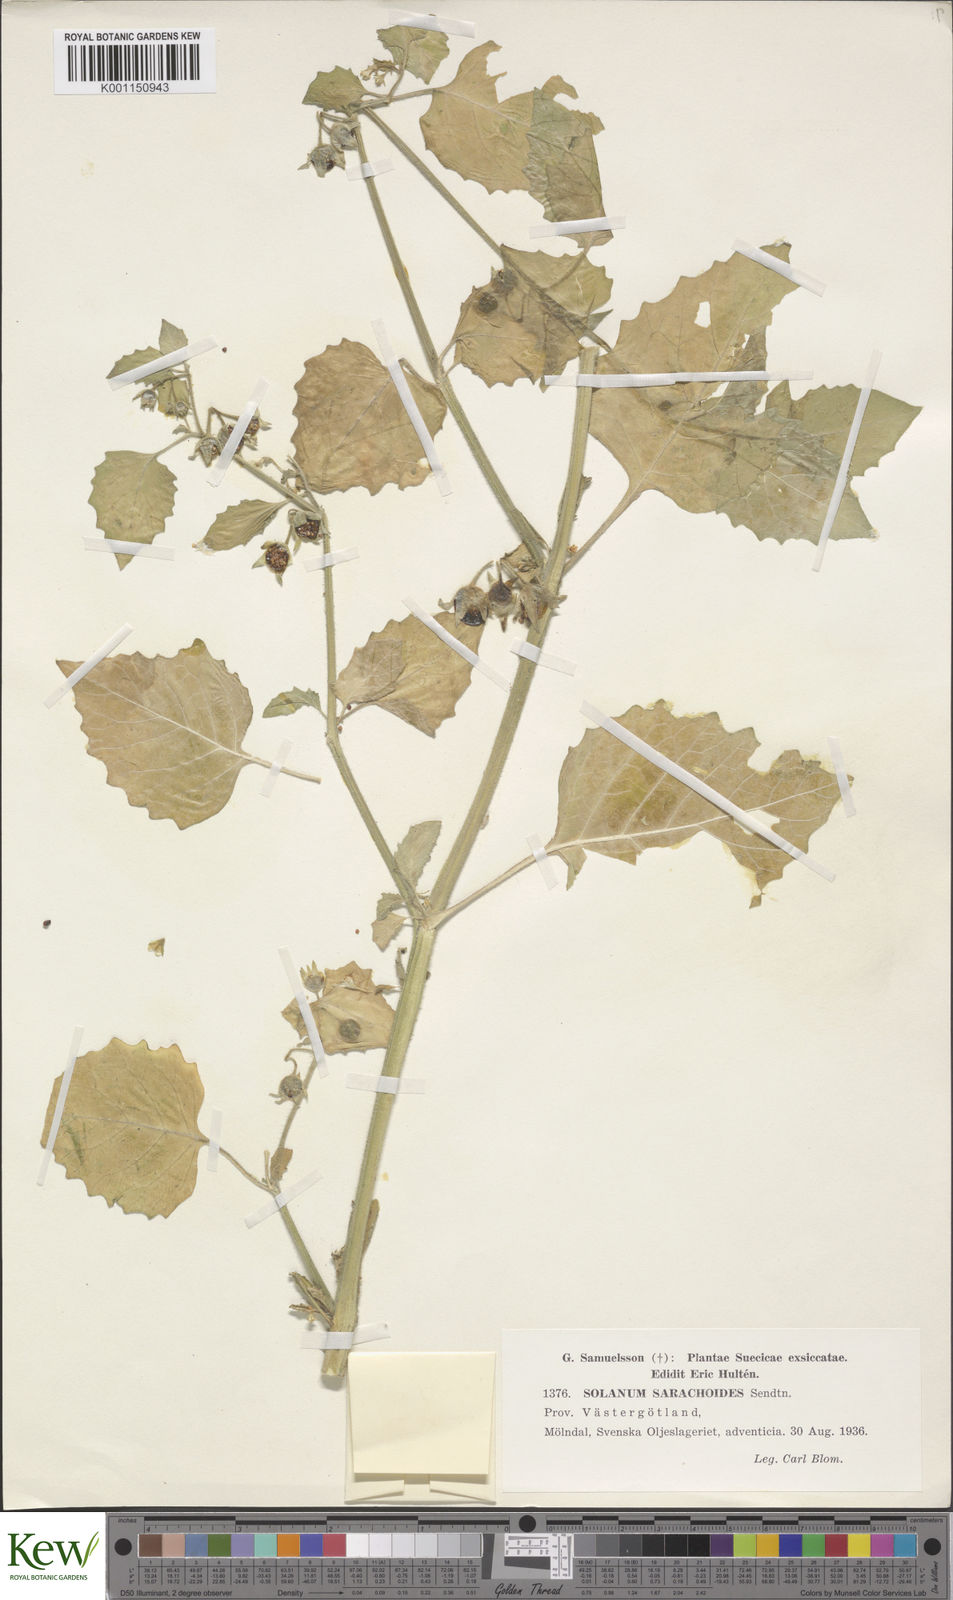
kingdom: Plantae
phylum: Tracheophyta
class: Magnoliopsida
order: Solanales
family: Solanaceae
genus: Solanum
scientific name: Solanum sarrachoides
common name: Leafy-fruited nightshade
